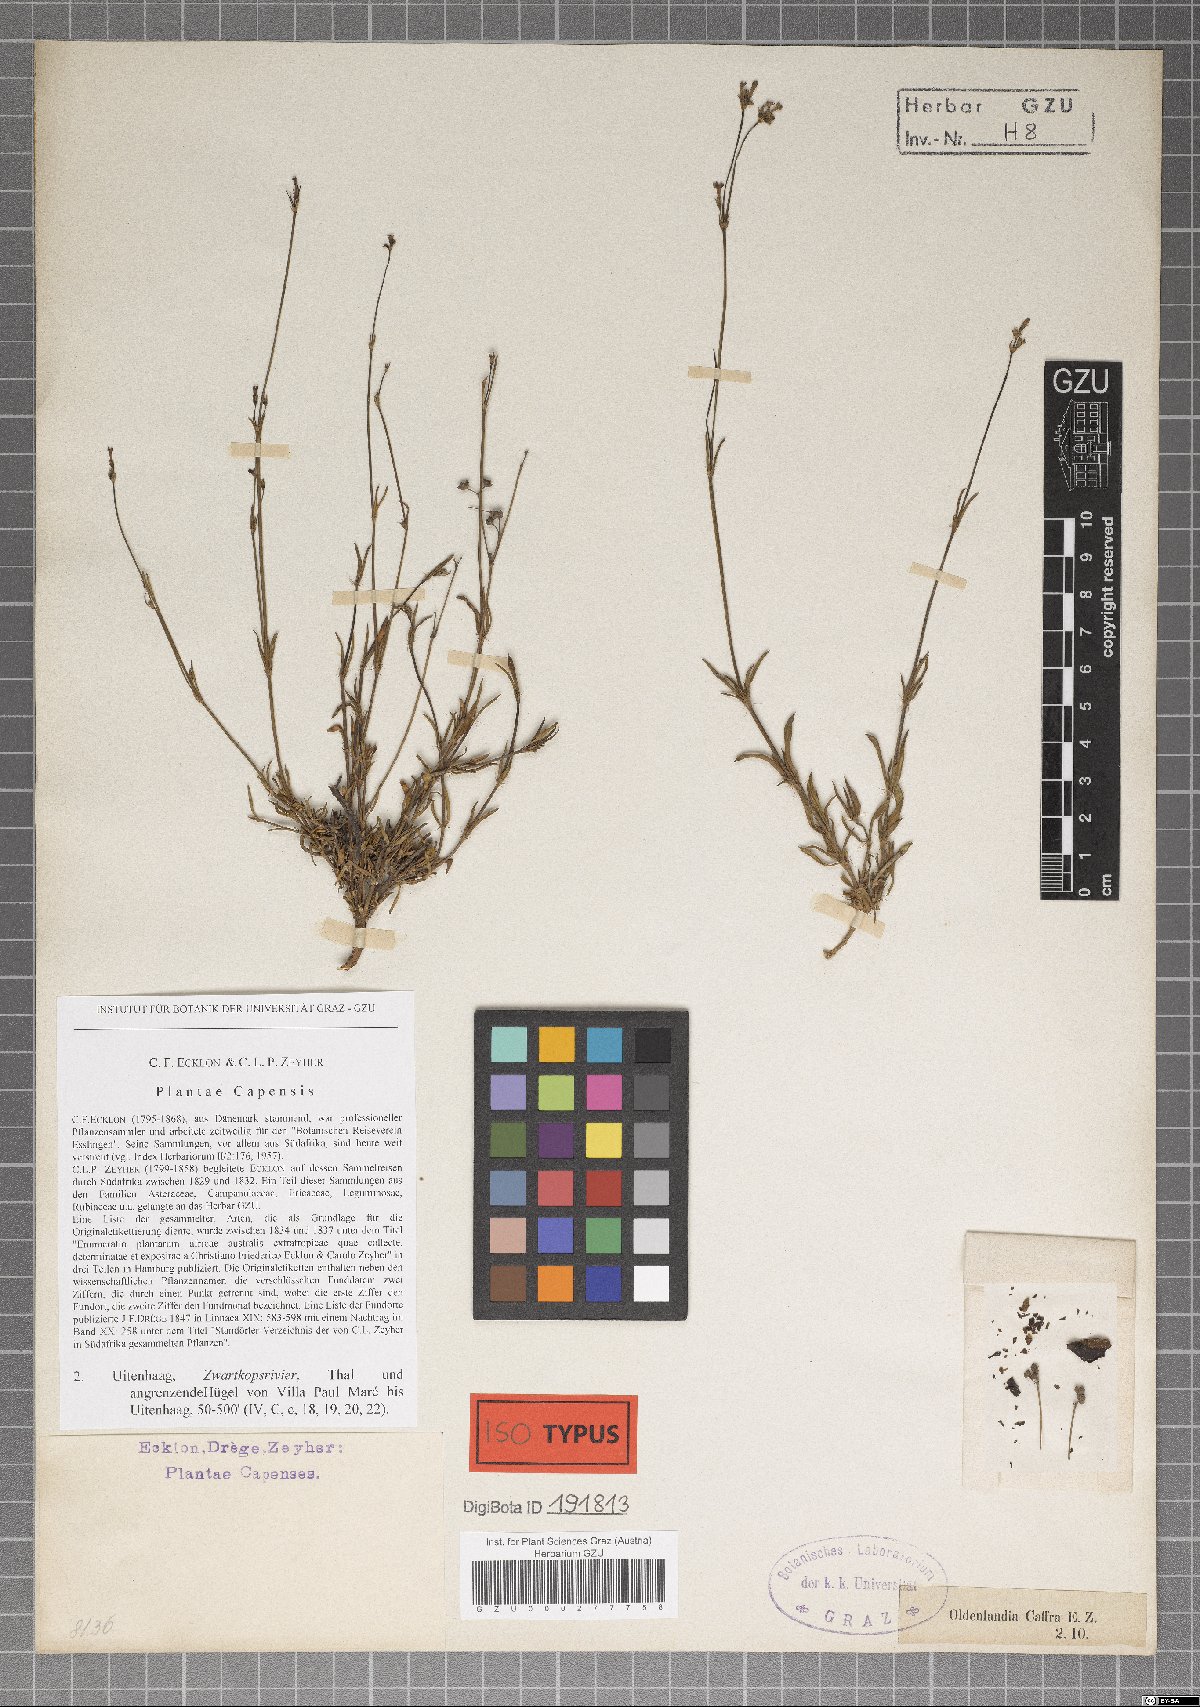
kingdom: Plantae
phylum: Tracheophyta
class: Magnoliopsida
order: Gentianales
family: Rubiaceae
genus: Cordylostigma
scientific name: Cordylostigma virgatum
